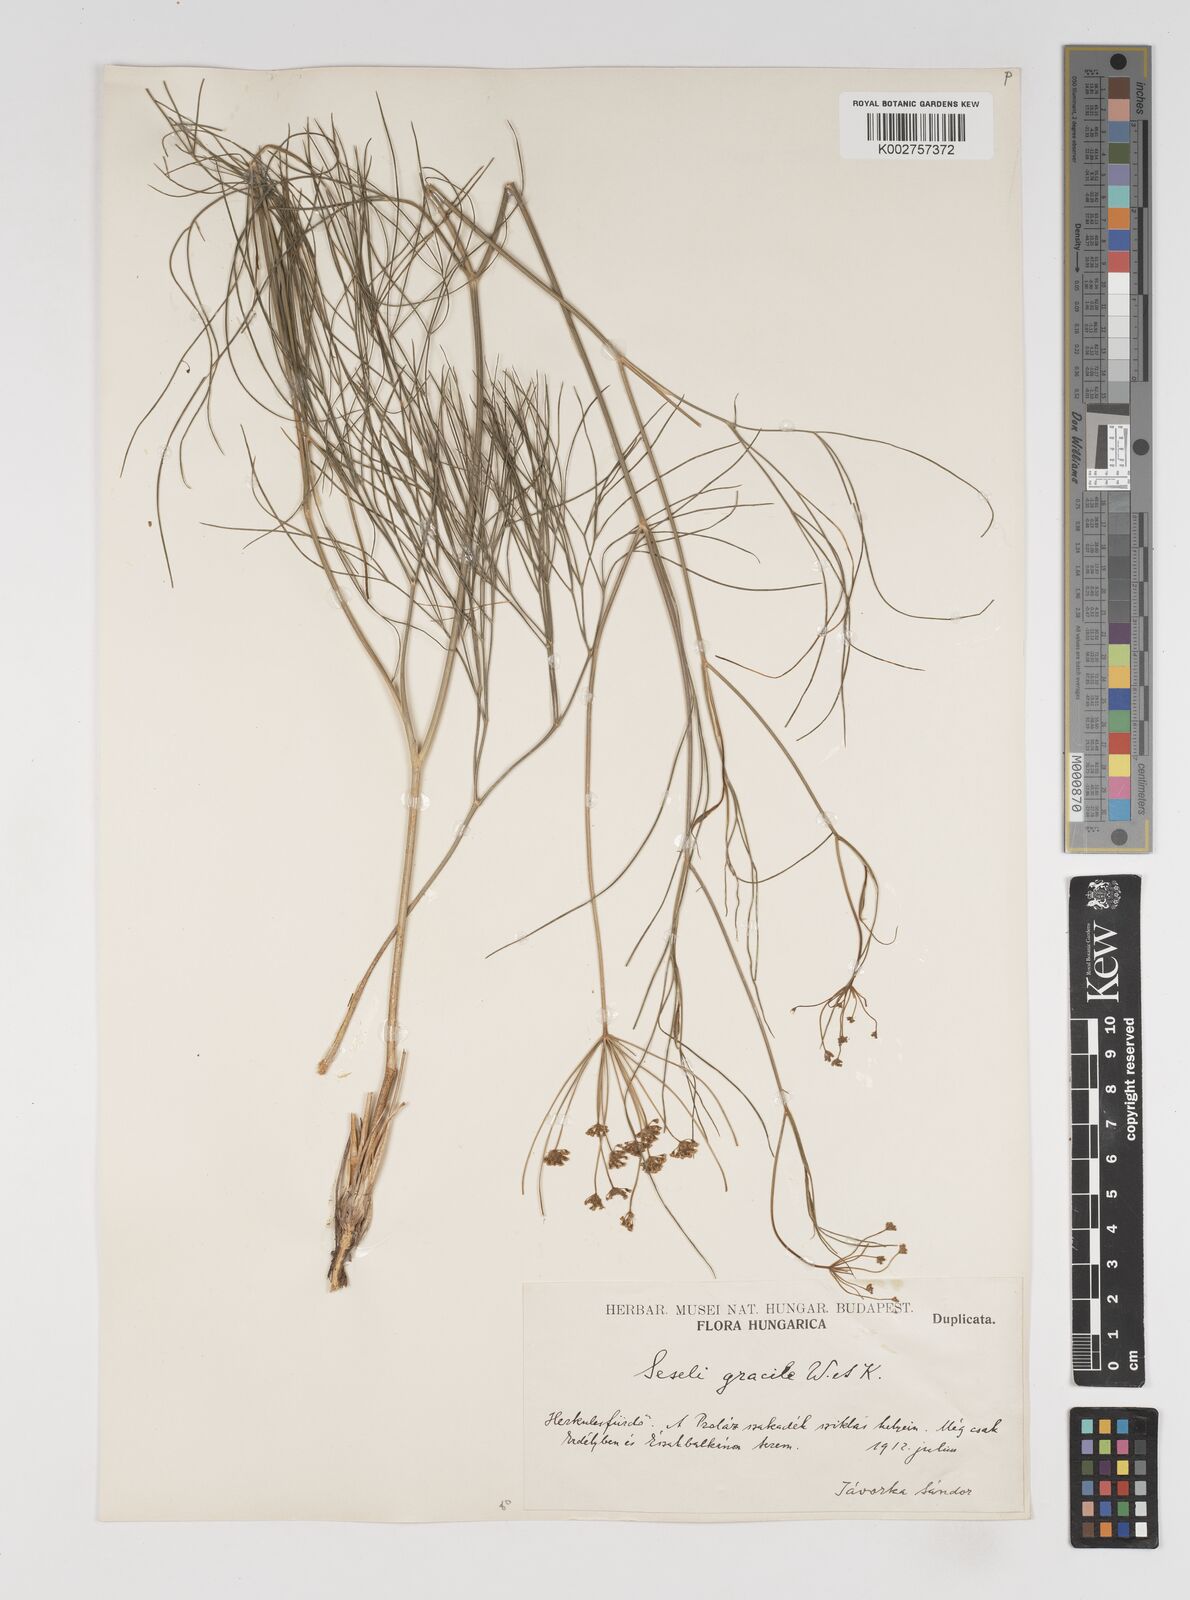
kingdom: Plantae
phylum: Tracheophyta
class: Magnoliopsida
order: Apiales
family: Apiaceae
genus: Seseli
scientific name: Seseli gracile
